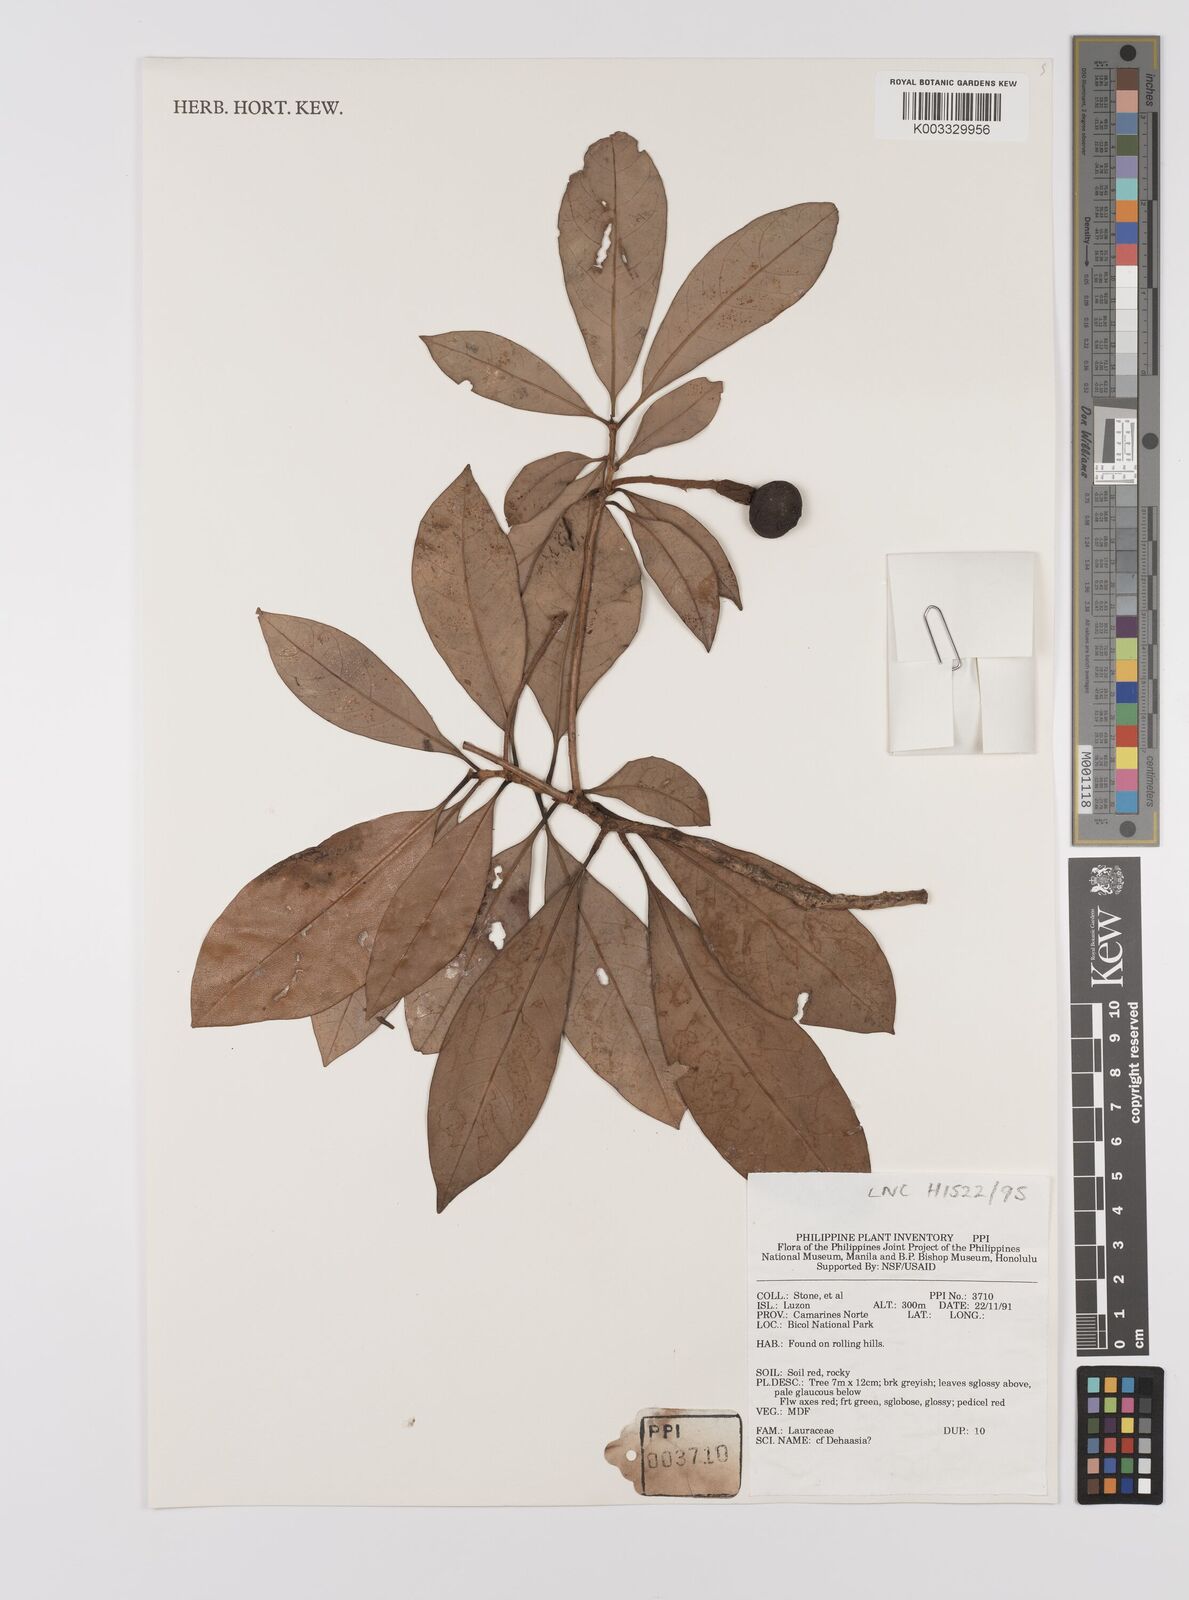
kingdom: Plantae
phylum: Tracheophyta
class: Magnoliopsida
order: Laurales
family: Lauraceae
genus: Dehaasia
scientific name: Dehaasia
